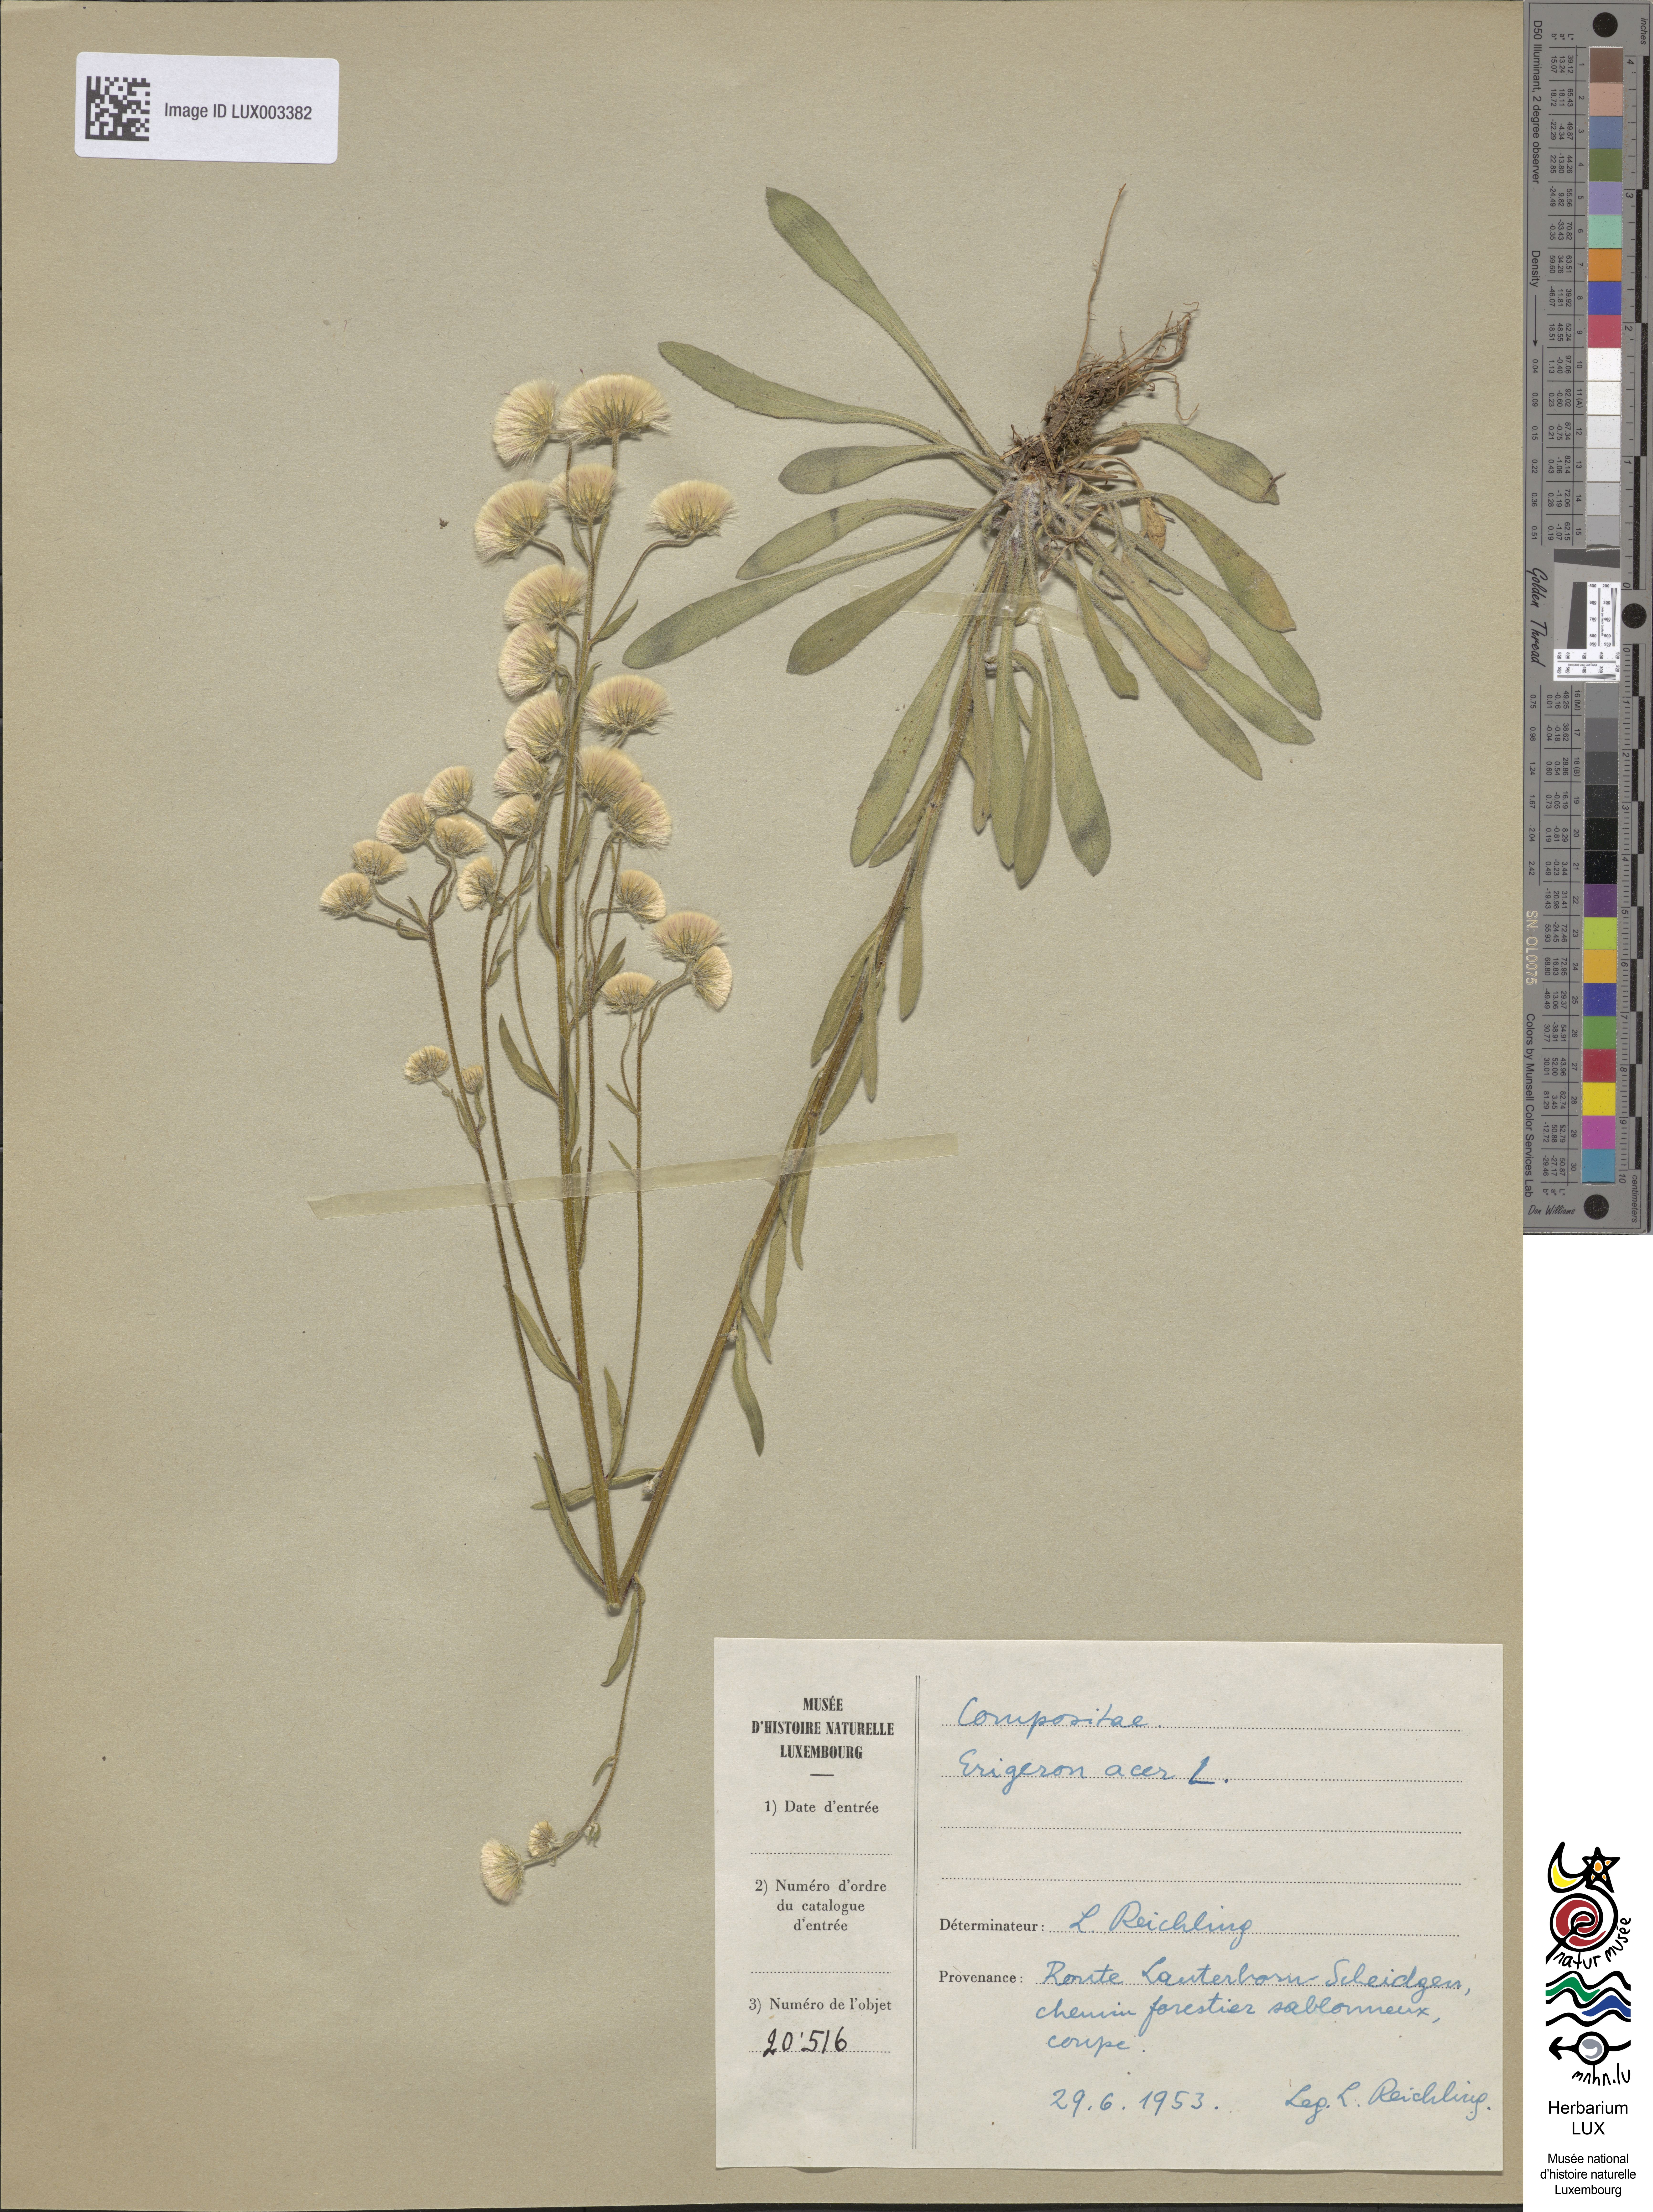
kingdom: Plantae
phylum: Tracheophyta
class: Magnoliopsida
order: Asterales
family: Asteraceae
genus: Erigeron
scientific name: Erigeron acer
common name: Blue fleabane
